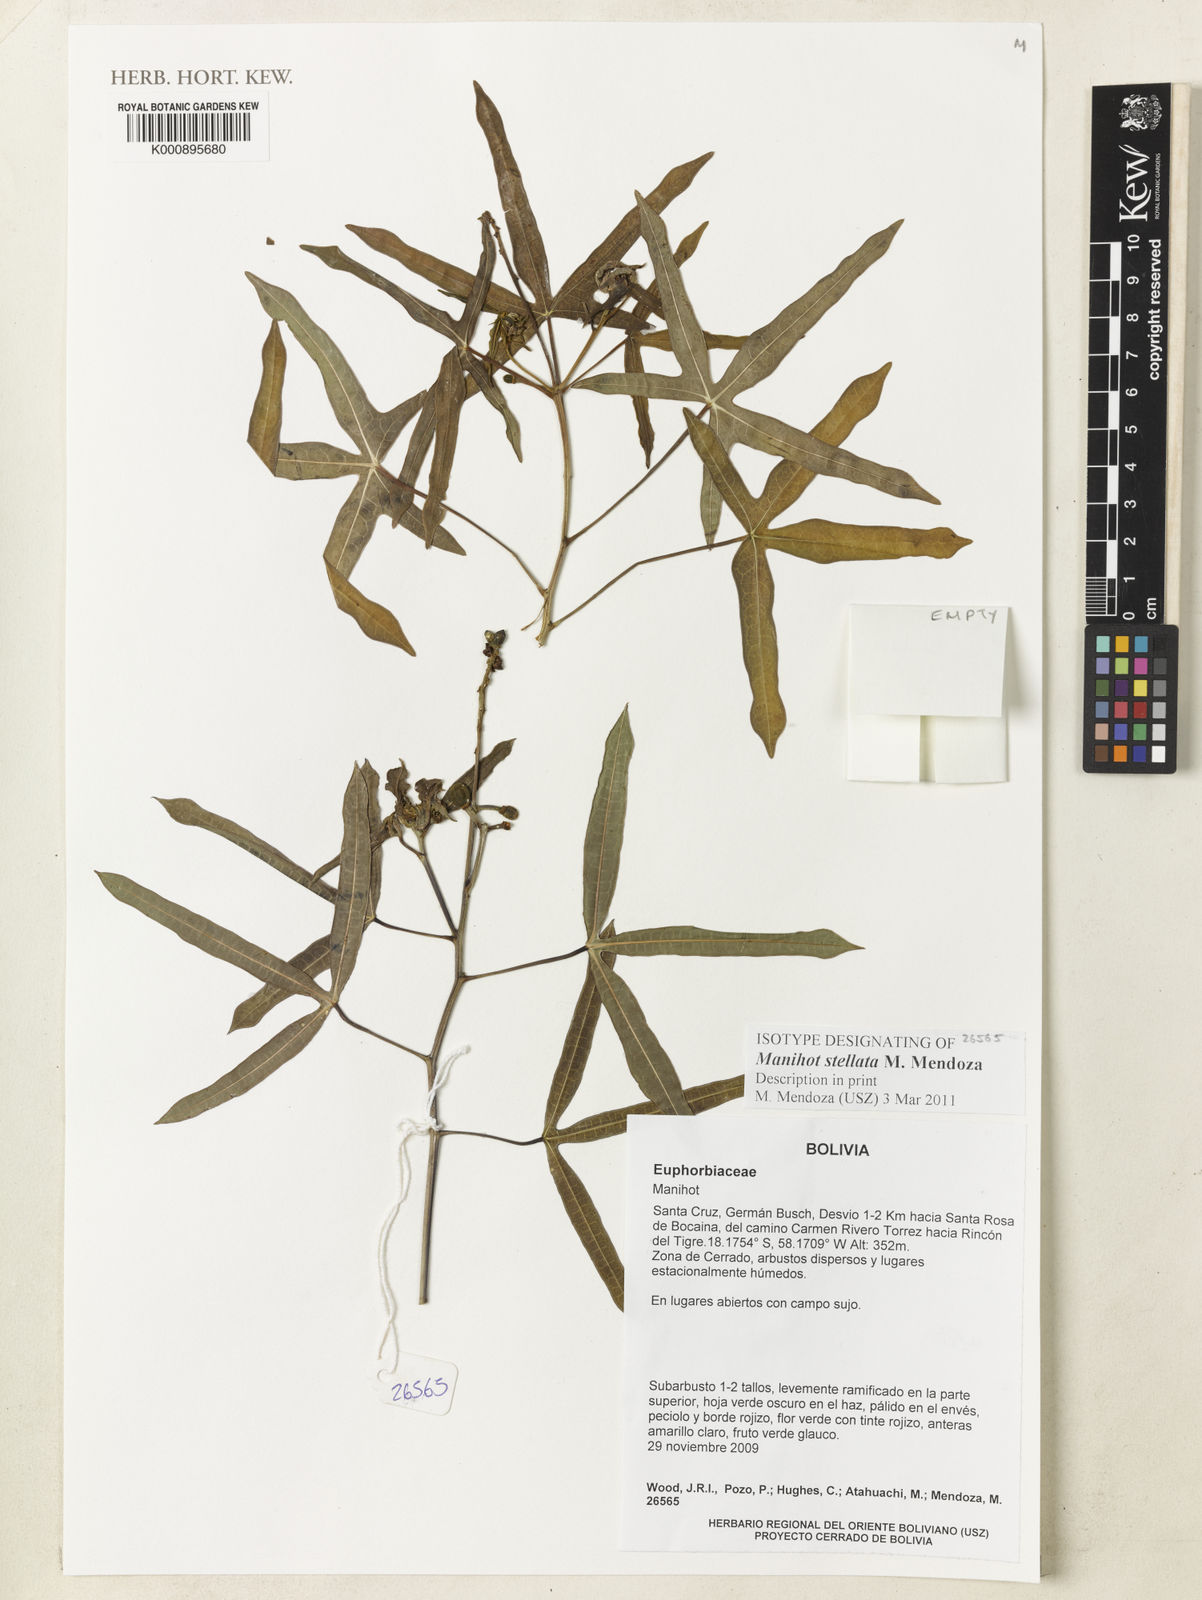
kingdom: Plantae
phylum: Tracheophyta
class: Magnoliopsida
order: Malpighiales
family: Euphorbiaceae
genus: Manihot
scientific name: Manihot stellata
